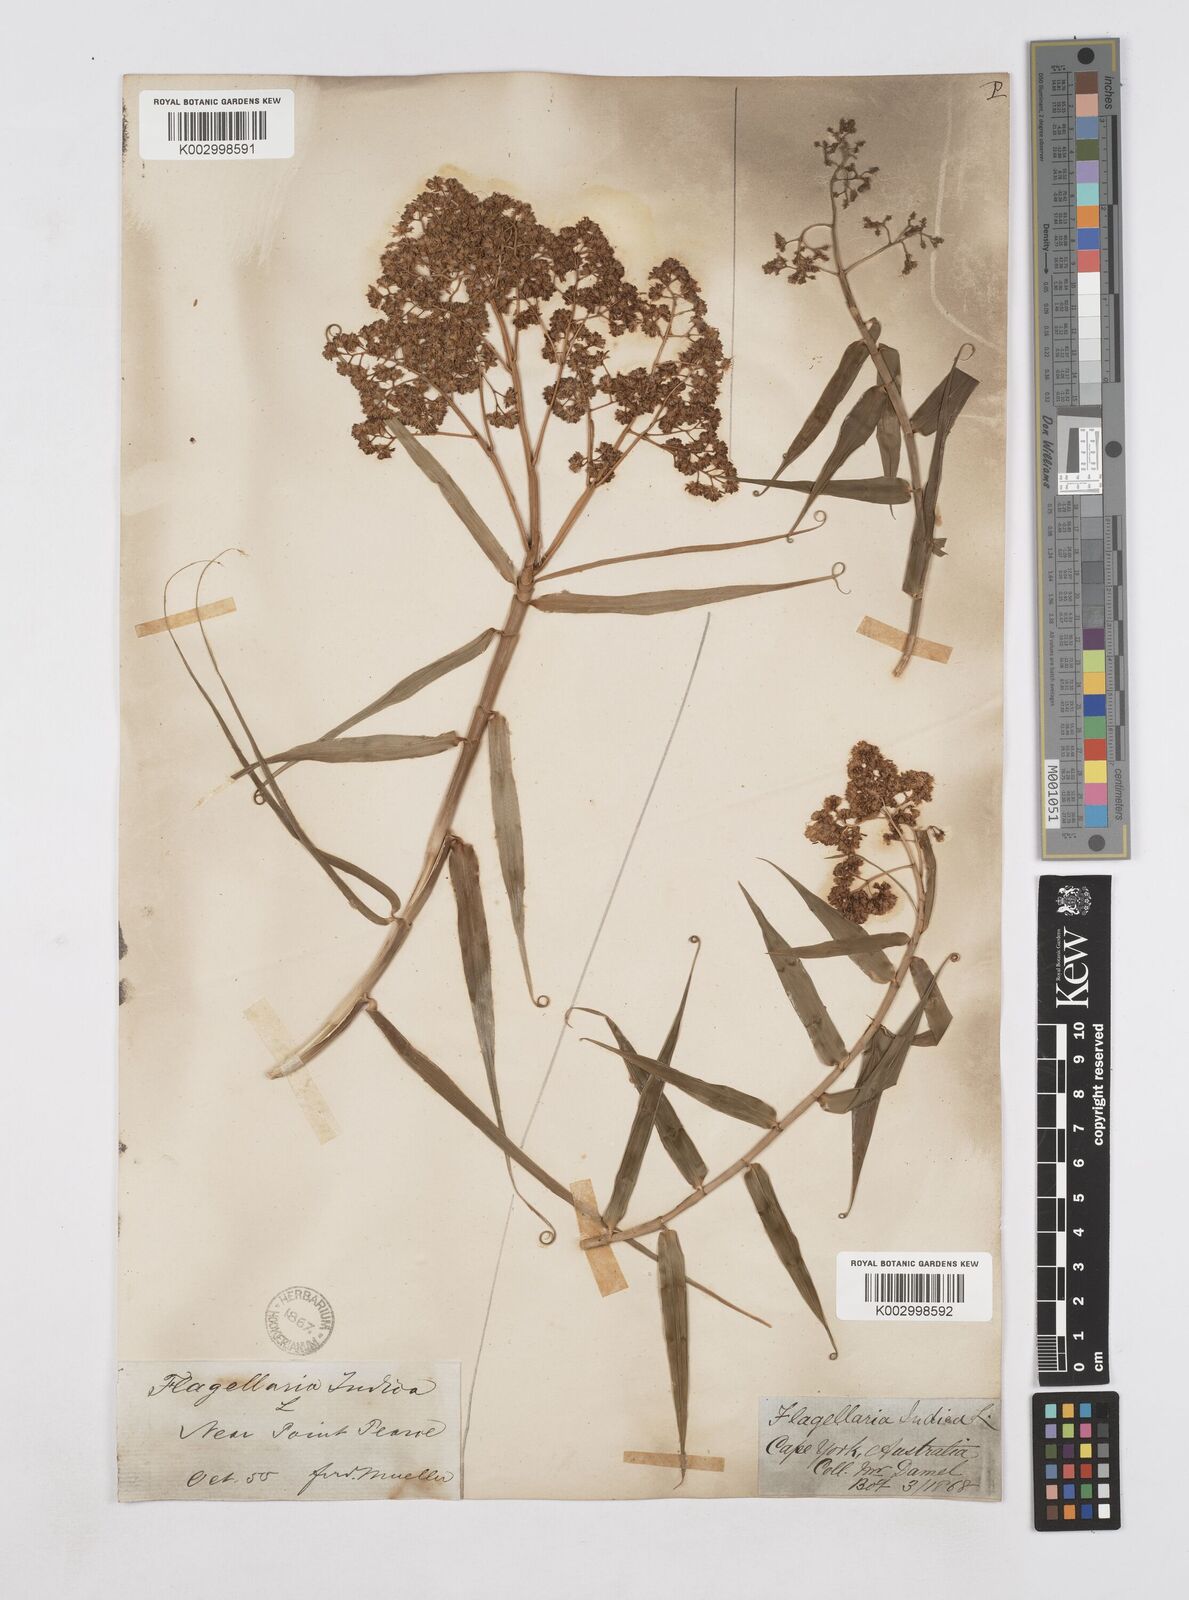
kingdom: Plantae
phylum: Tracheophyta
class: Liliopsida
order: Poales
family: Flagellariaceae
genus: Flagellaria
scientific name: Flagellaria indica
